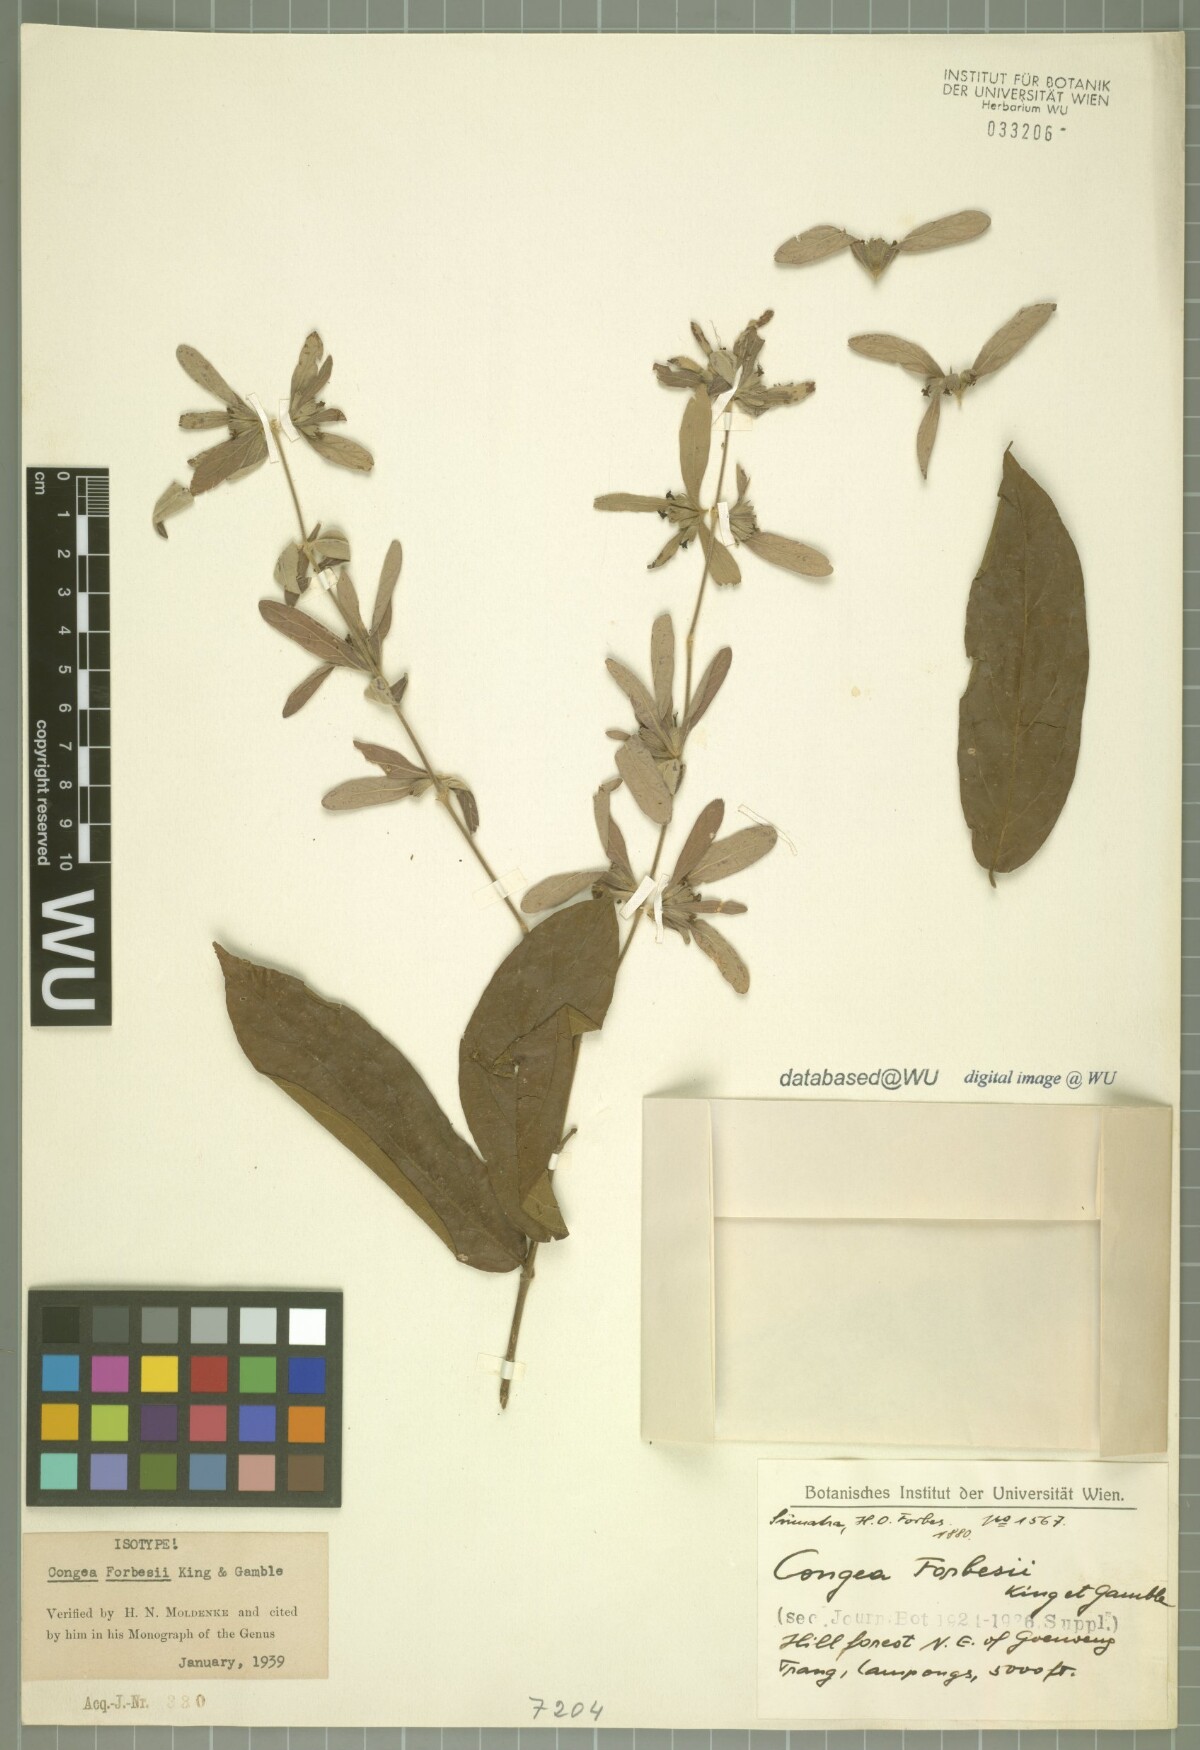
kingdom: Plantae
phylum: Tracheophyta
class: Magnoliopsida
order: Lamiales
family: Lamiaceae
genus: Congea
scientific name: Congea forbesii
